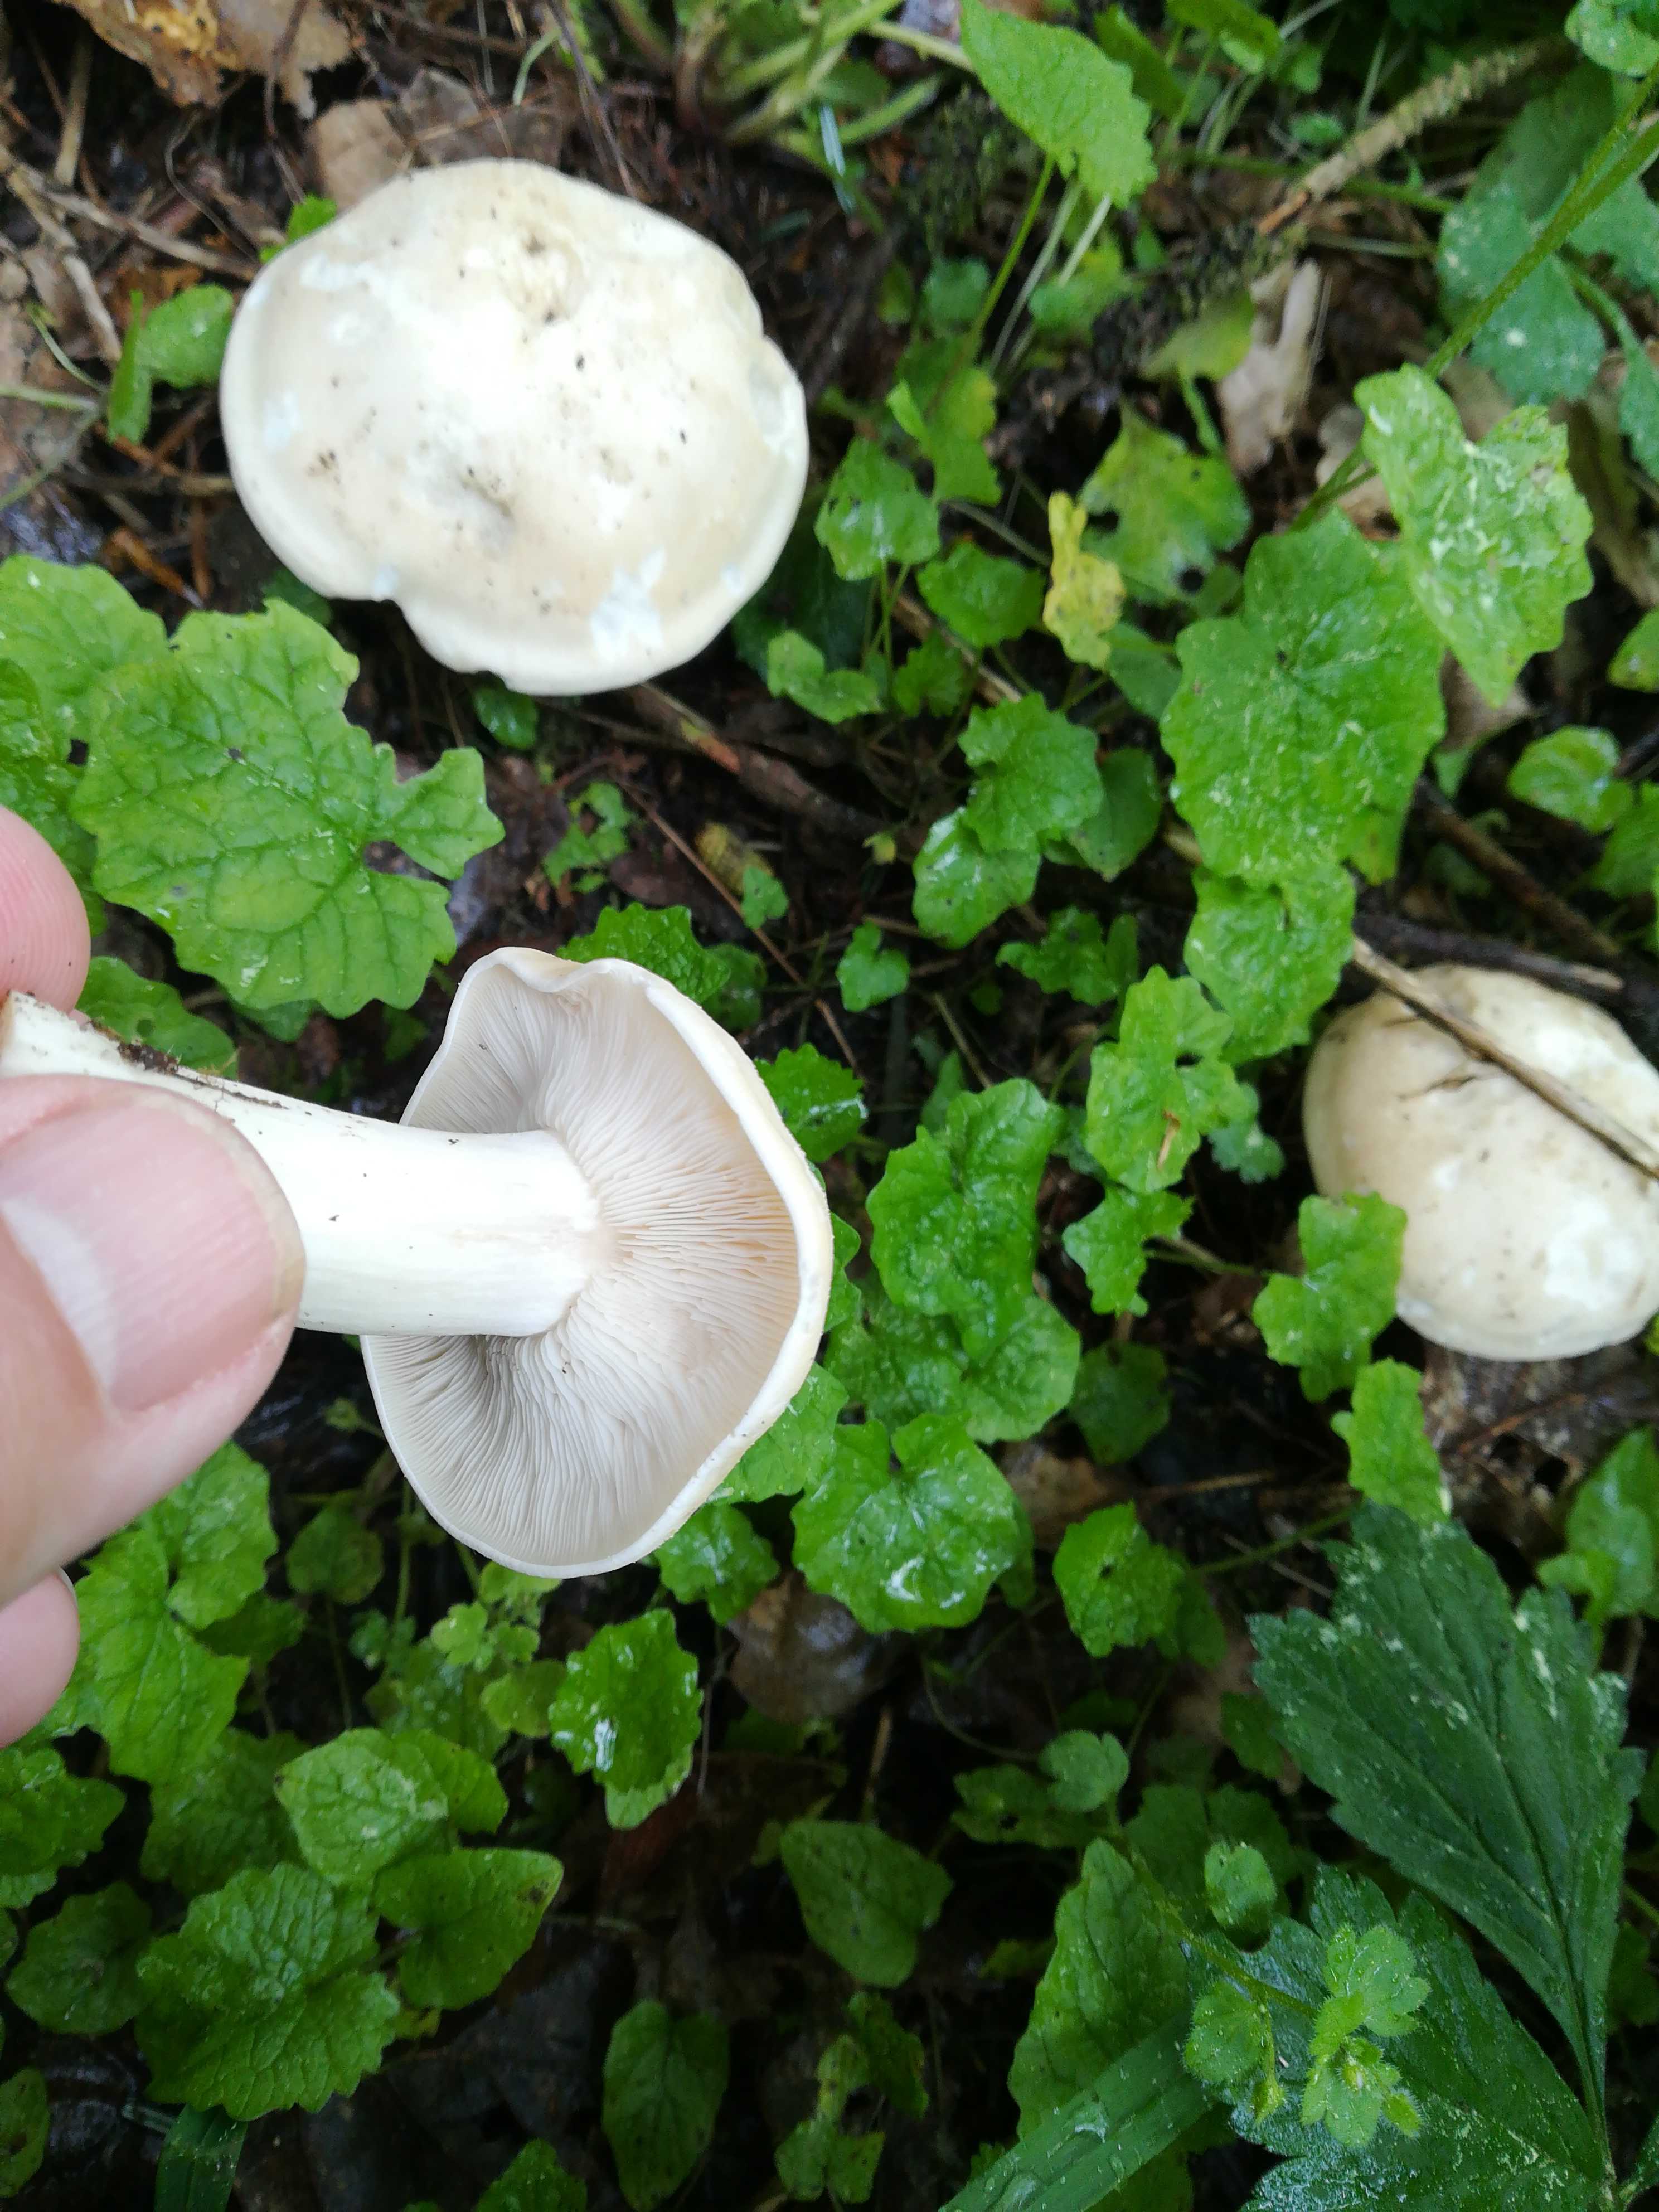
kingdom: Fungi
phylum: Basidiomycota
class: Agaricomycetes
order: Agaricales
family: Lyophyllaceae
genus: Calocybe
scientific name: Calocybe gambosa
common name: vårmusseron
